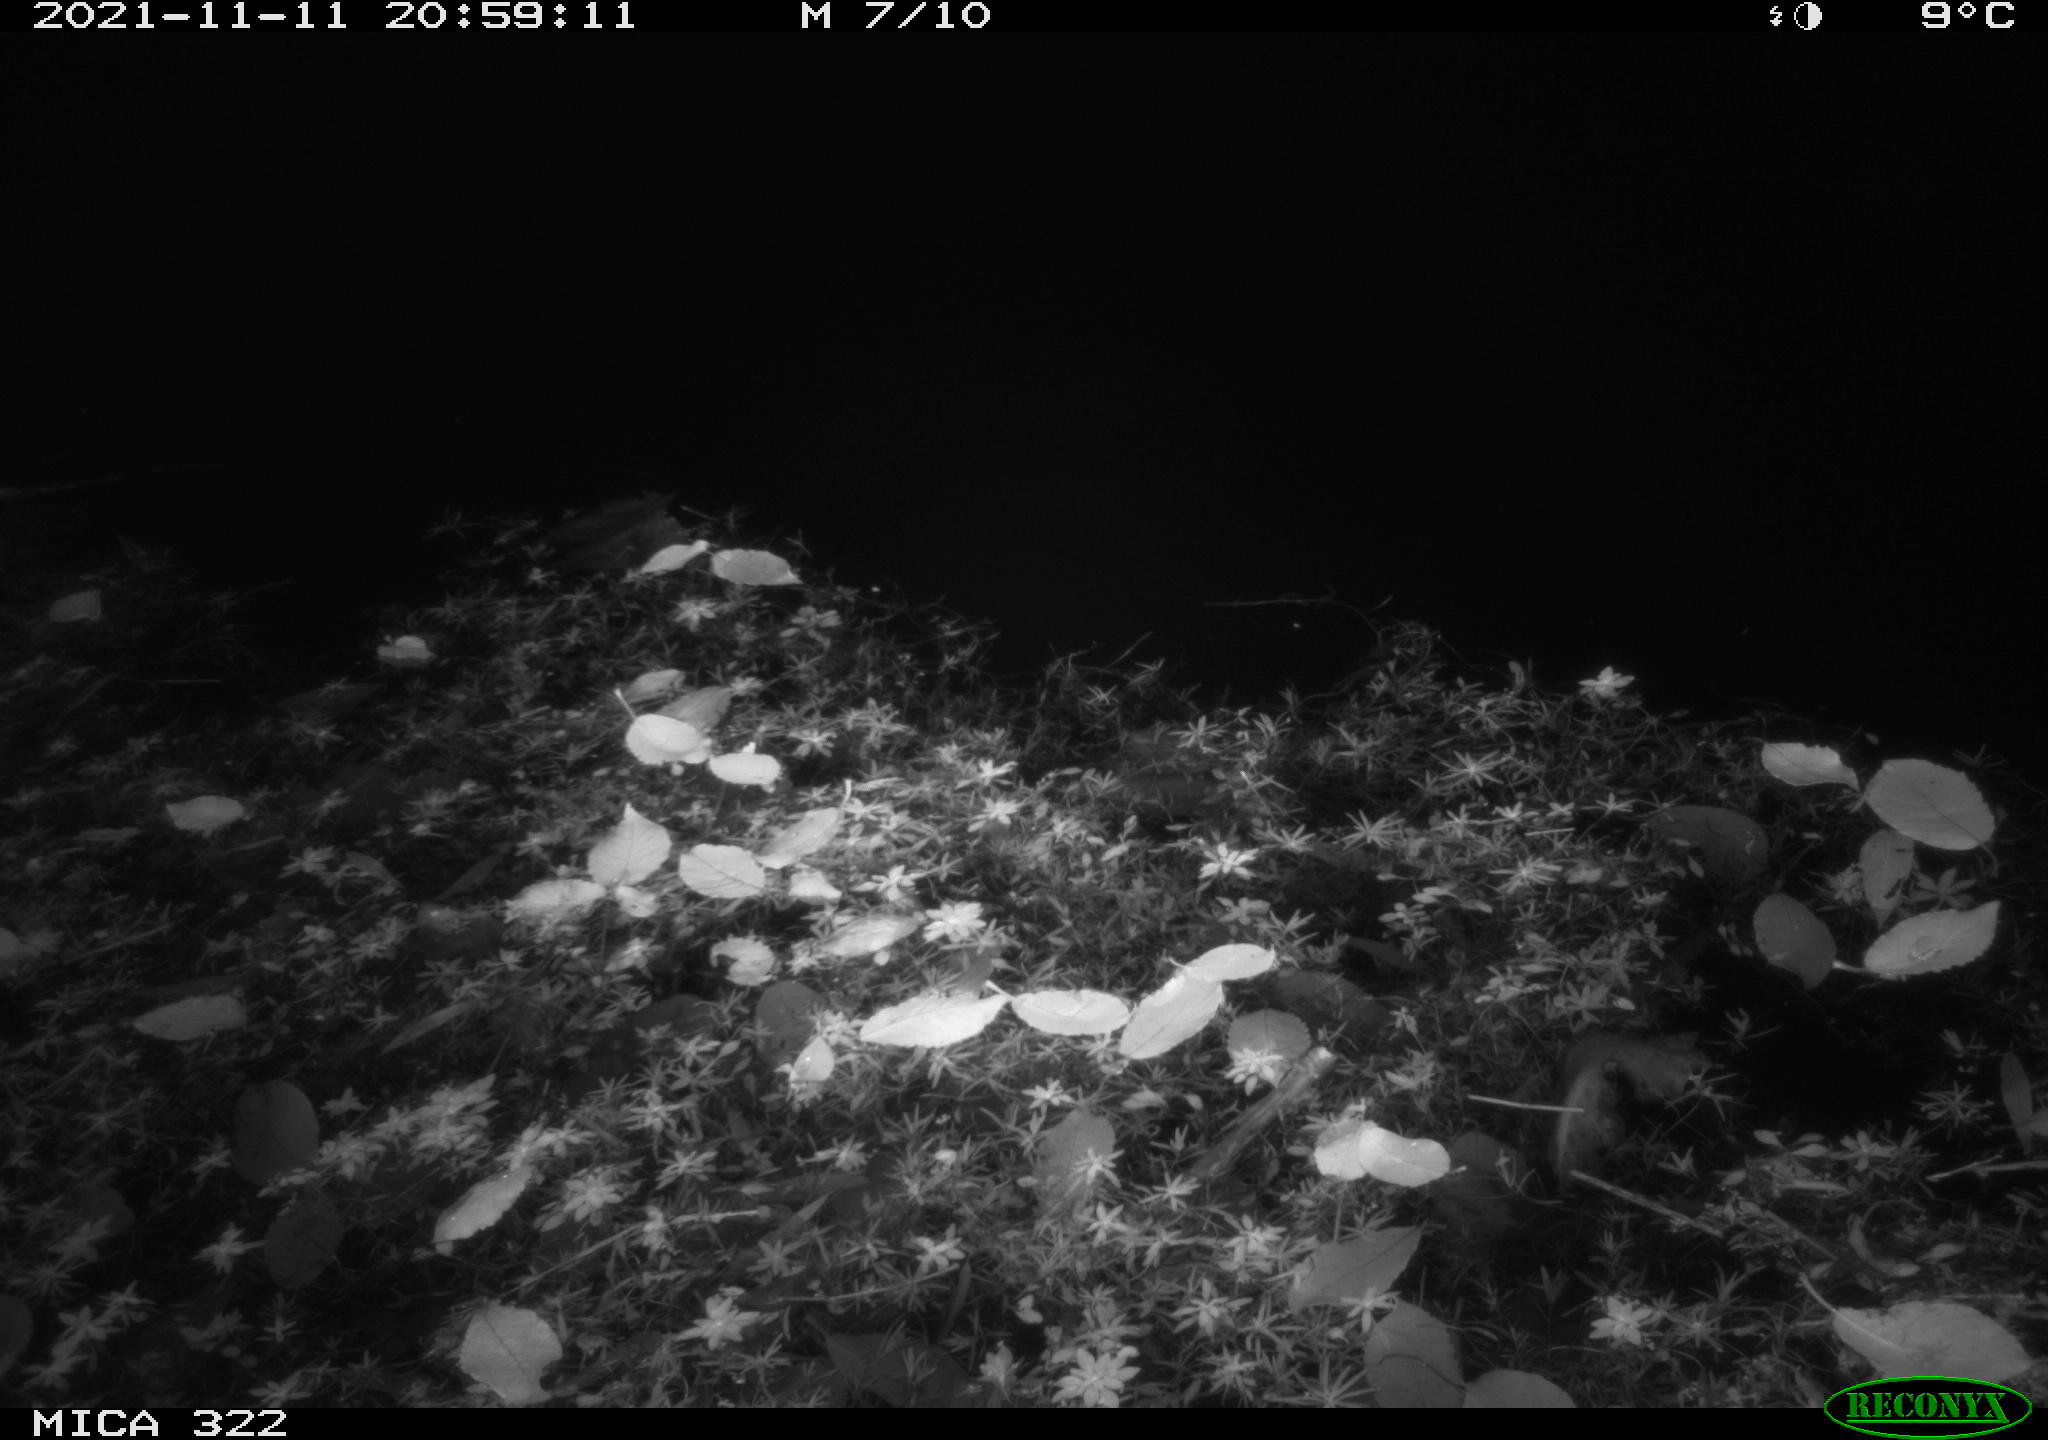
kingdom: Animalia
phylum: Chordata
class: Mammalia
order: Rodentia
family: Muridae
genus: Rattus
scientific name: Rattus norvegicus
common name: Brown rat
